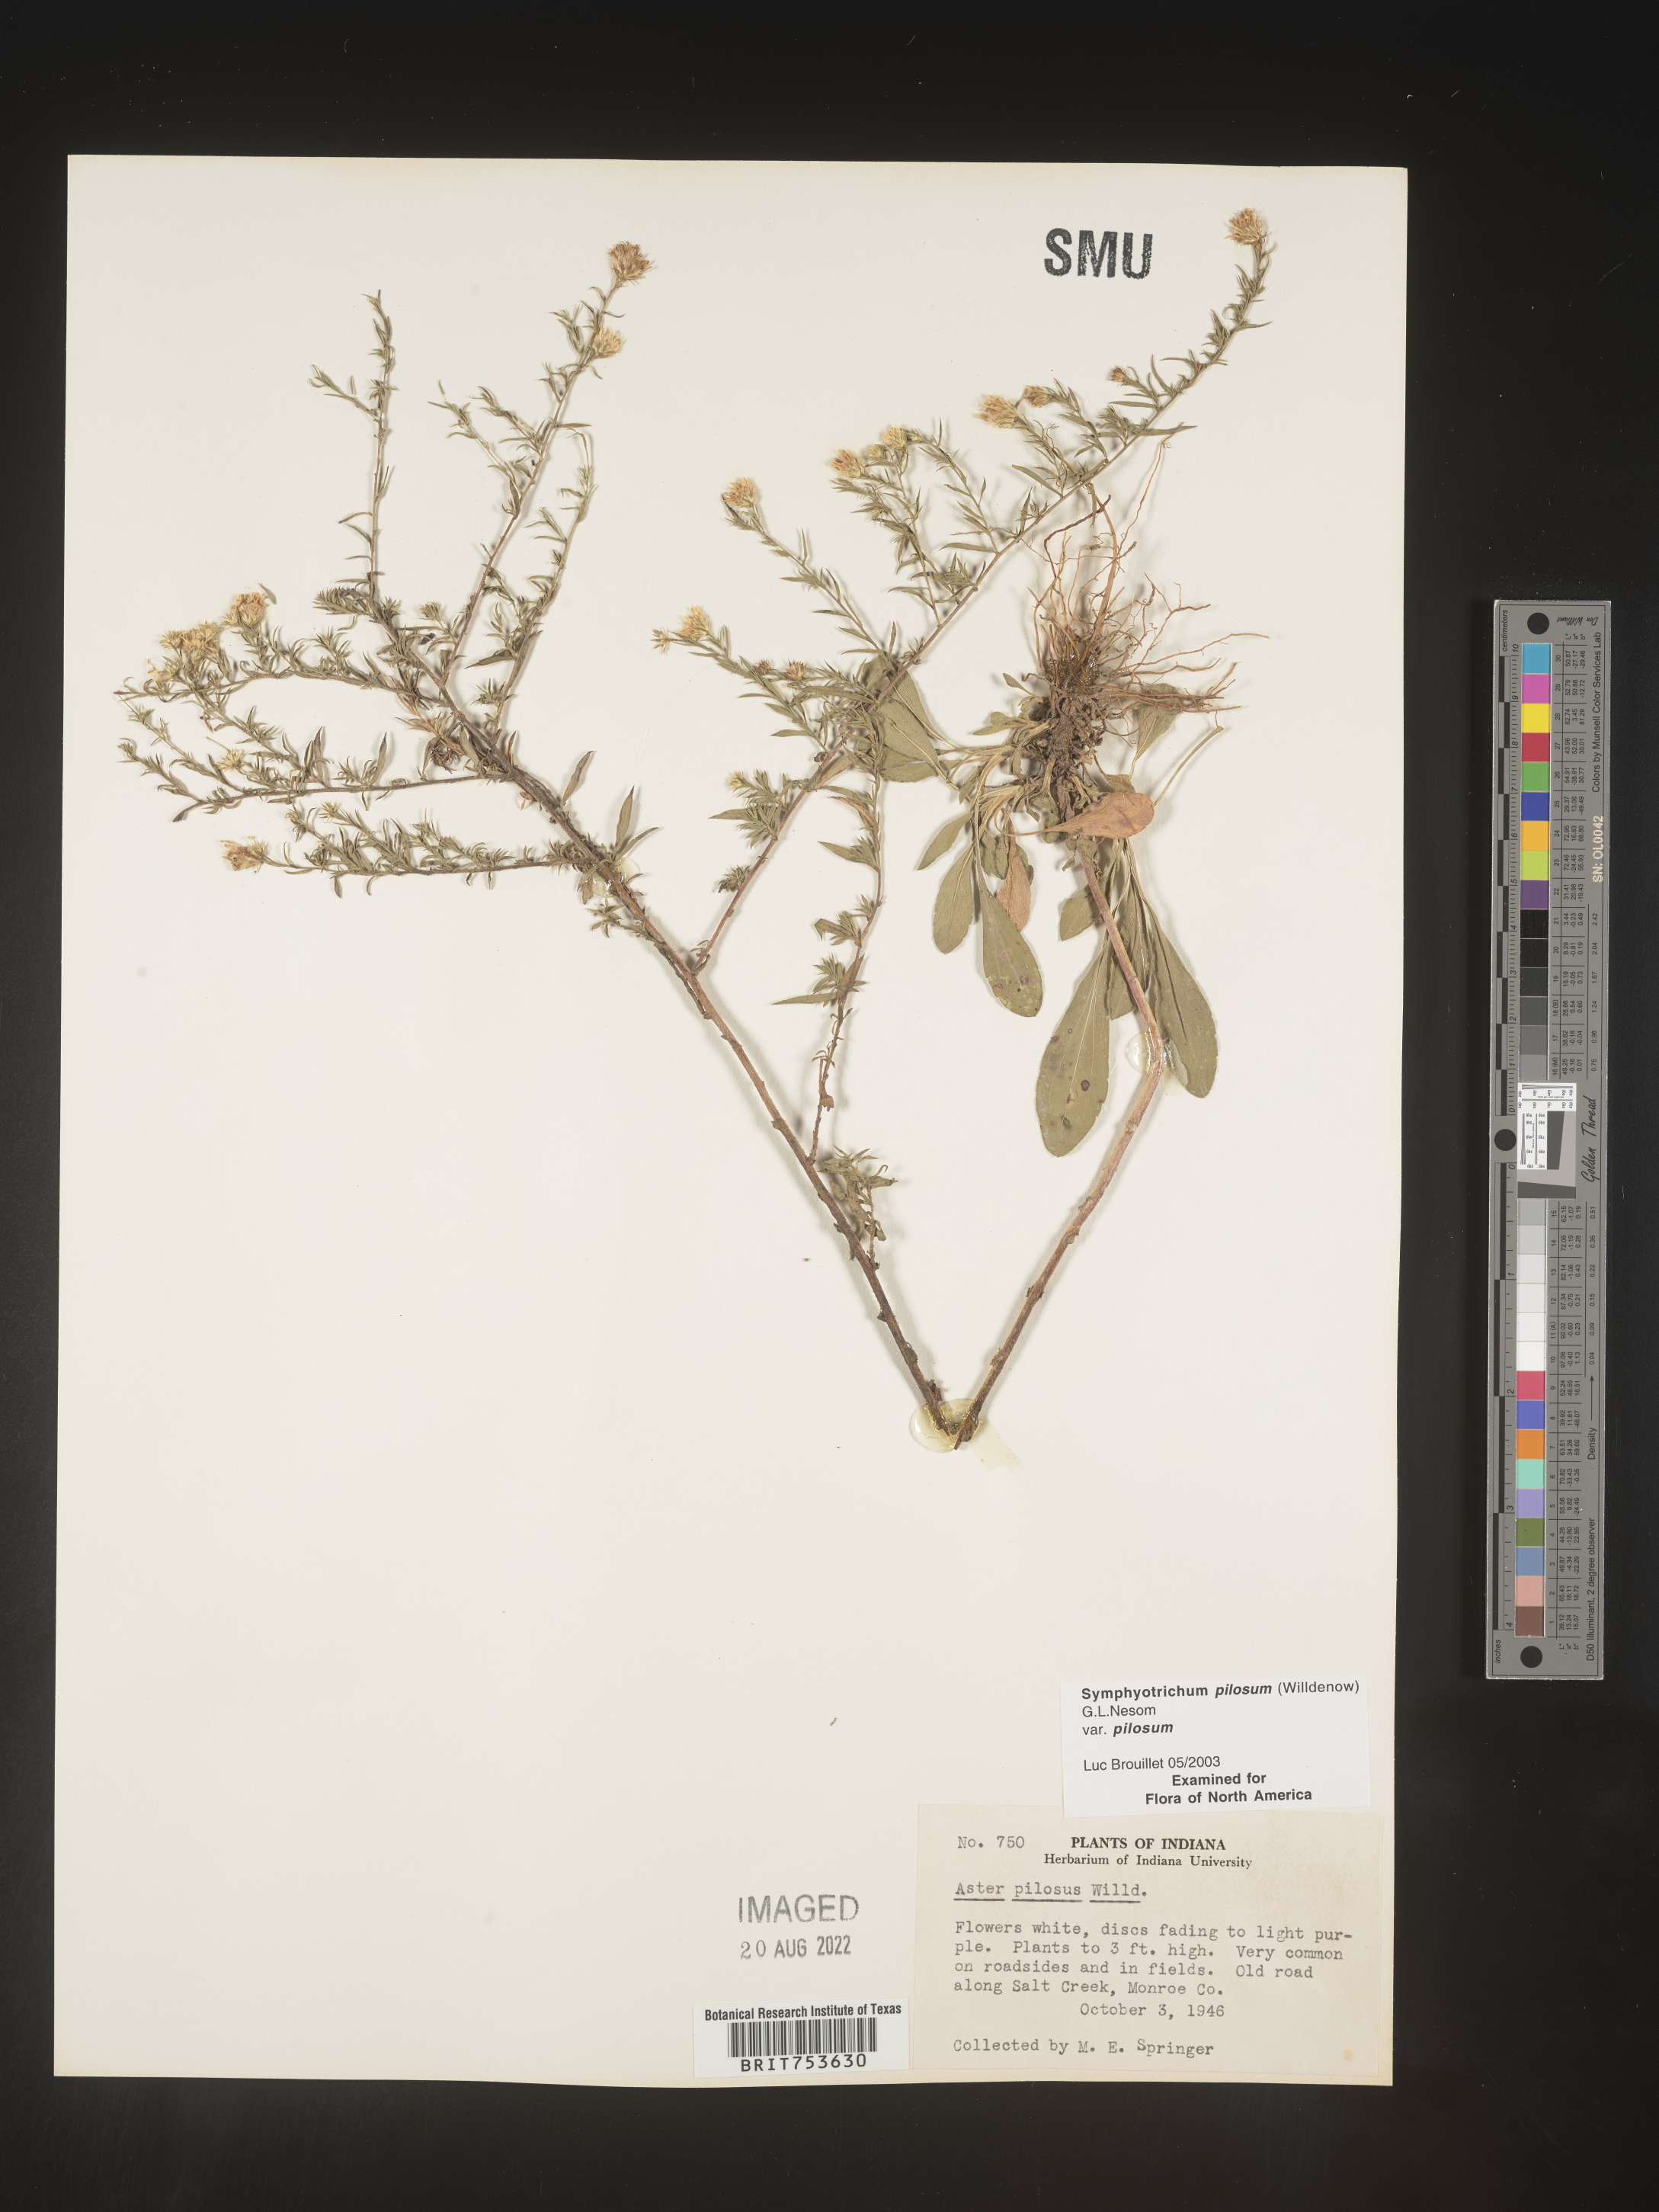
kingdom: Plantae
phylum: Tracheophyta
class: Magnoliopsida
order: Asterales
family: Asteraceae
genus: Symphyotrichum
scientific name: Symphyotrichum pilosum
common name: Awl aster
